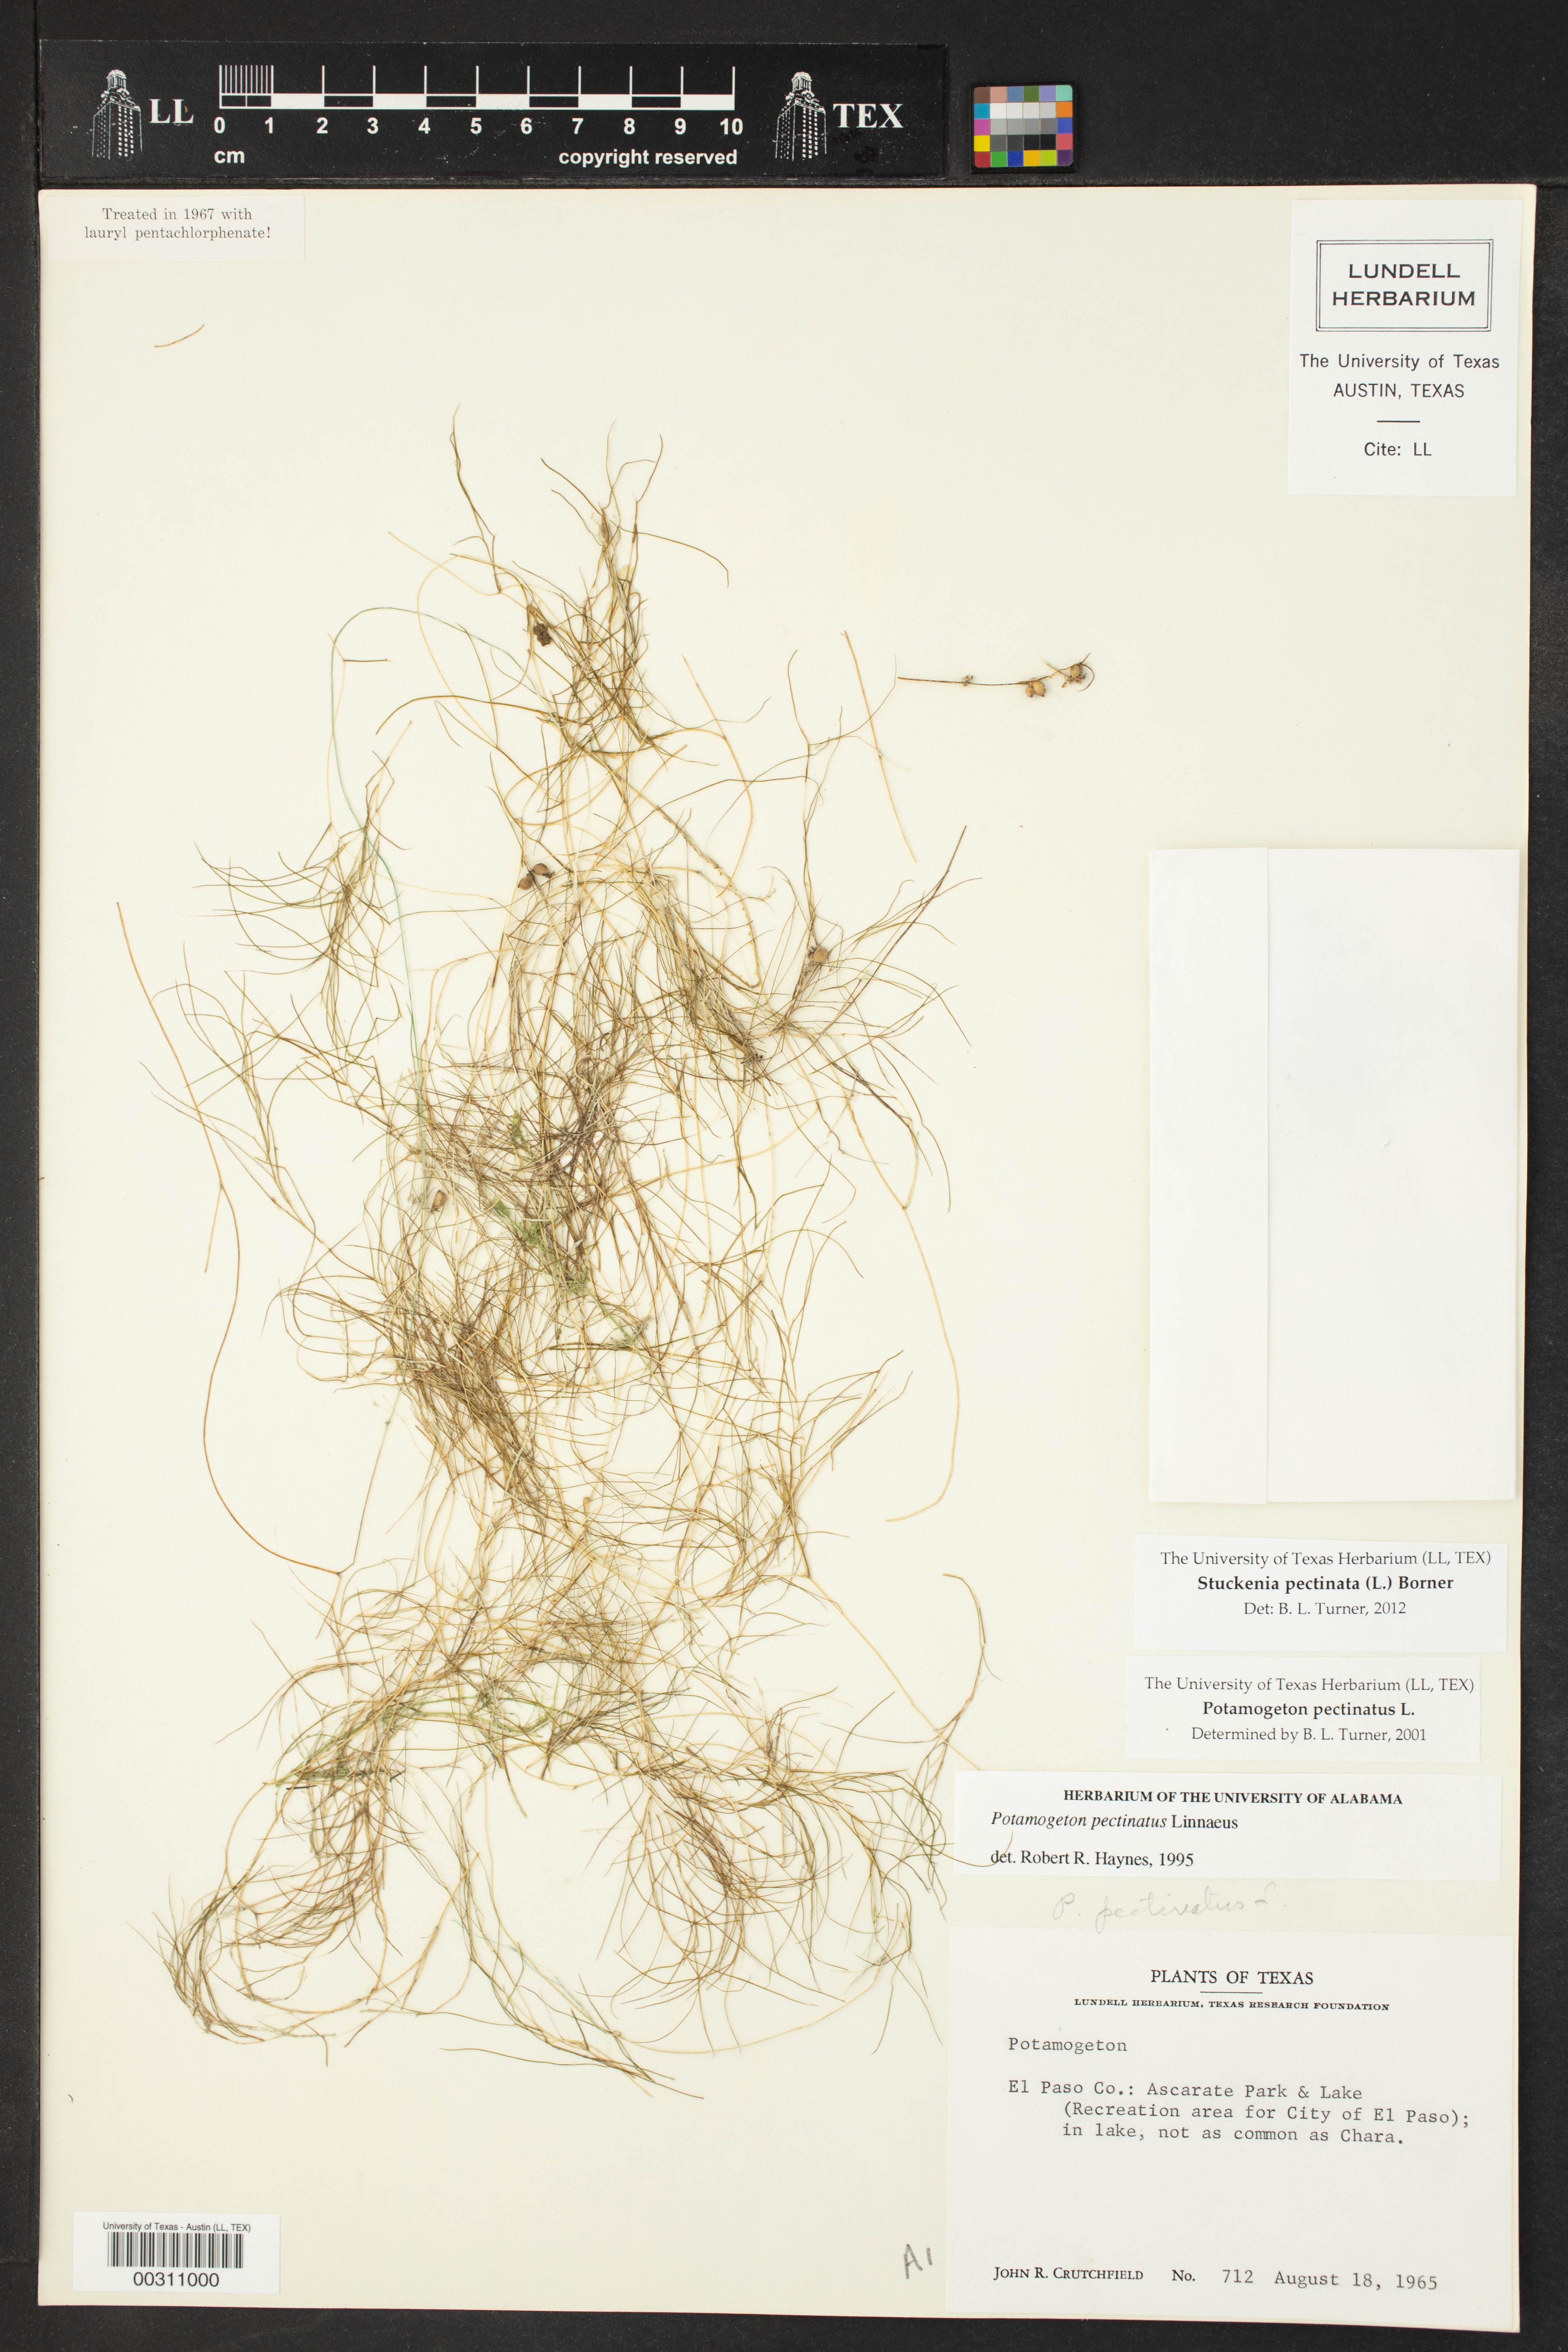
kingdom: Plantae
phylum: Tracheophyta
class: Liliopsida
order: Alismatales
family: Potamogetonaceae
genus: Stuckenia
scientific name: Stuckenia pectinata
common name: Sago pondweed
